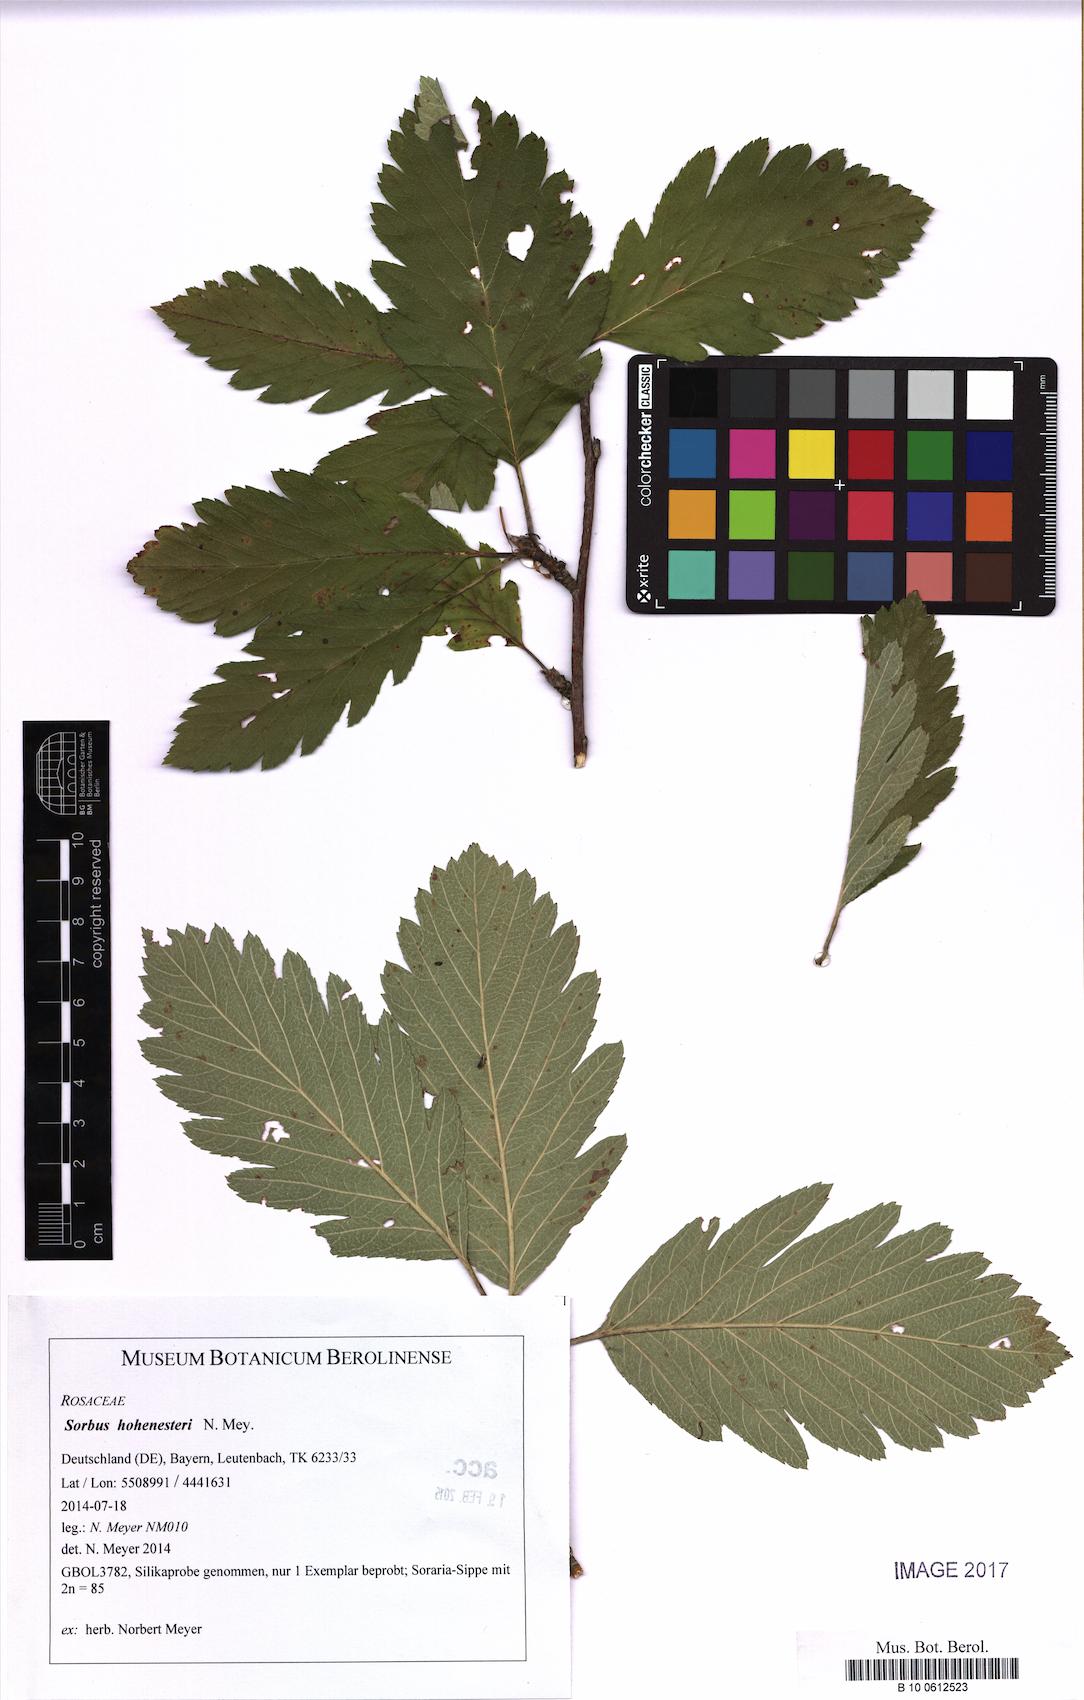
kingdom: Plantae
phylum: Tracheophyta
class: Magnoliopsida
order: Rosales
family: Rosaceae
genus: Hedlundia
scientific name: Hedlundia hohenesteri
